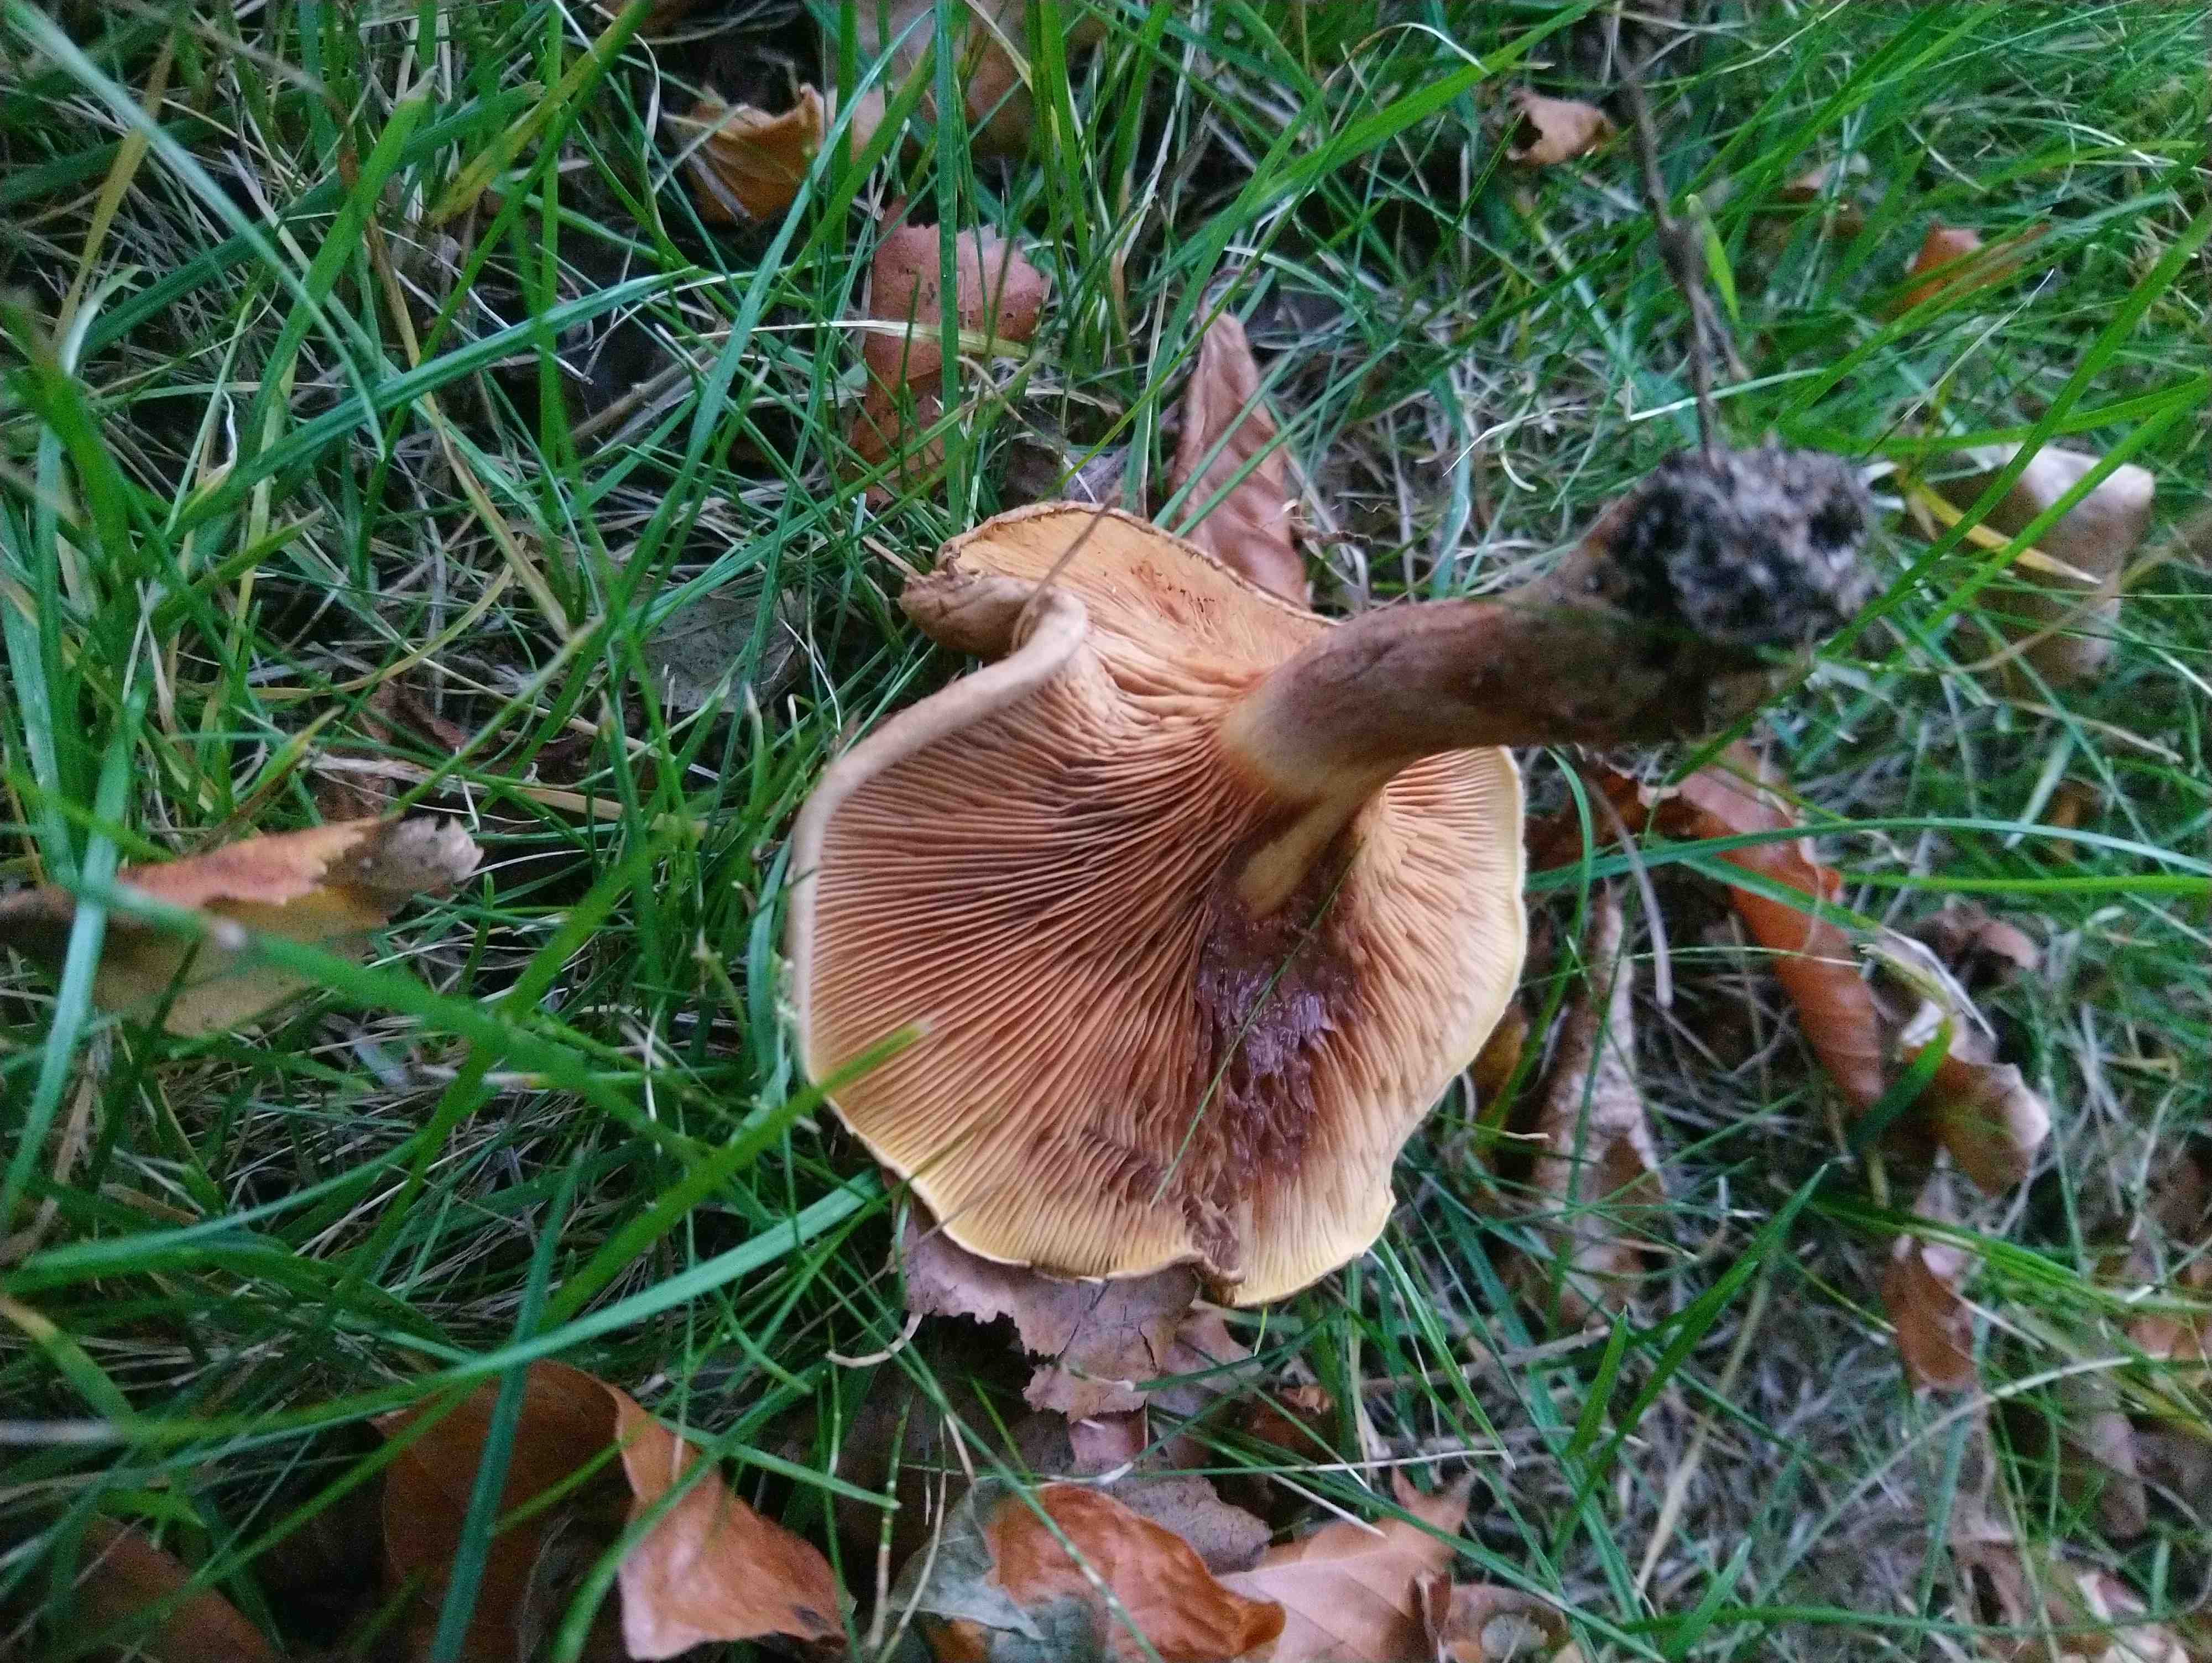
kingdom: Fungi
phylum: Basidiomycota
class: Agaricomycetes
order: Boletales
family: Paxillaceae
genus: Paxillus
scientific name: Paxillus
